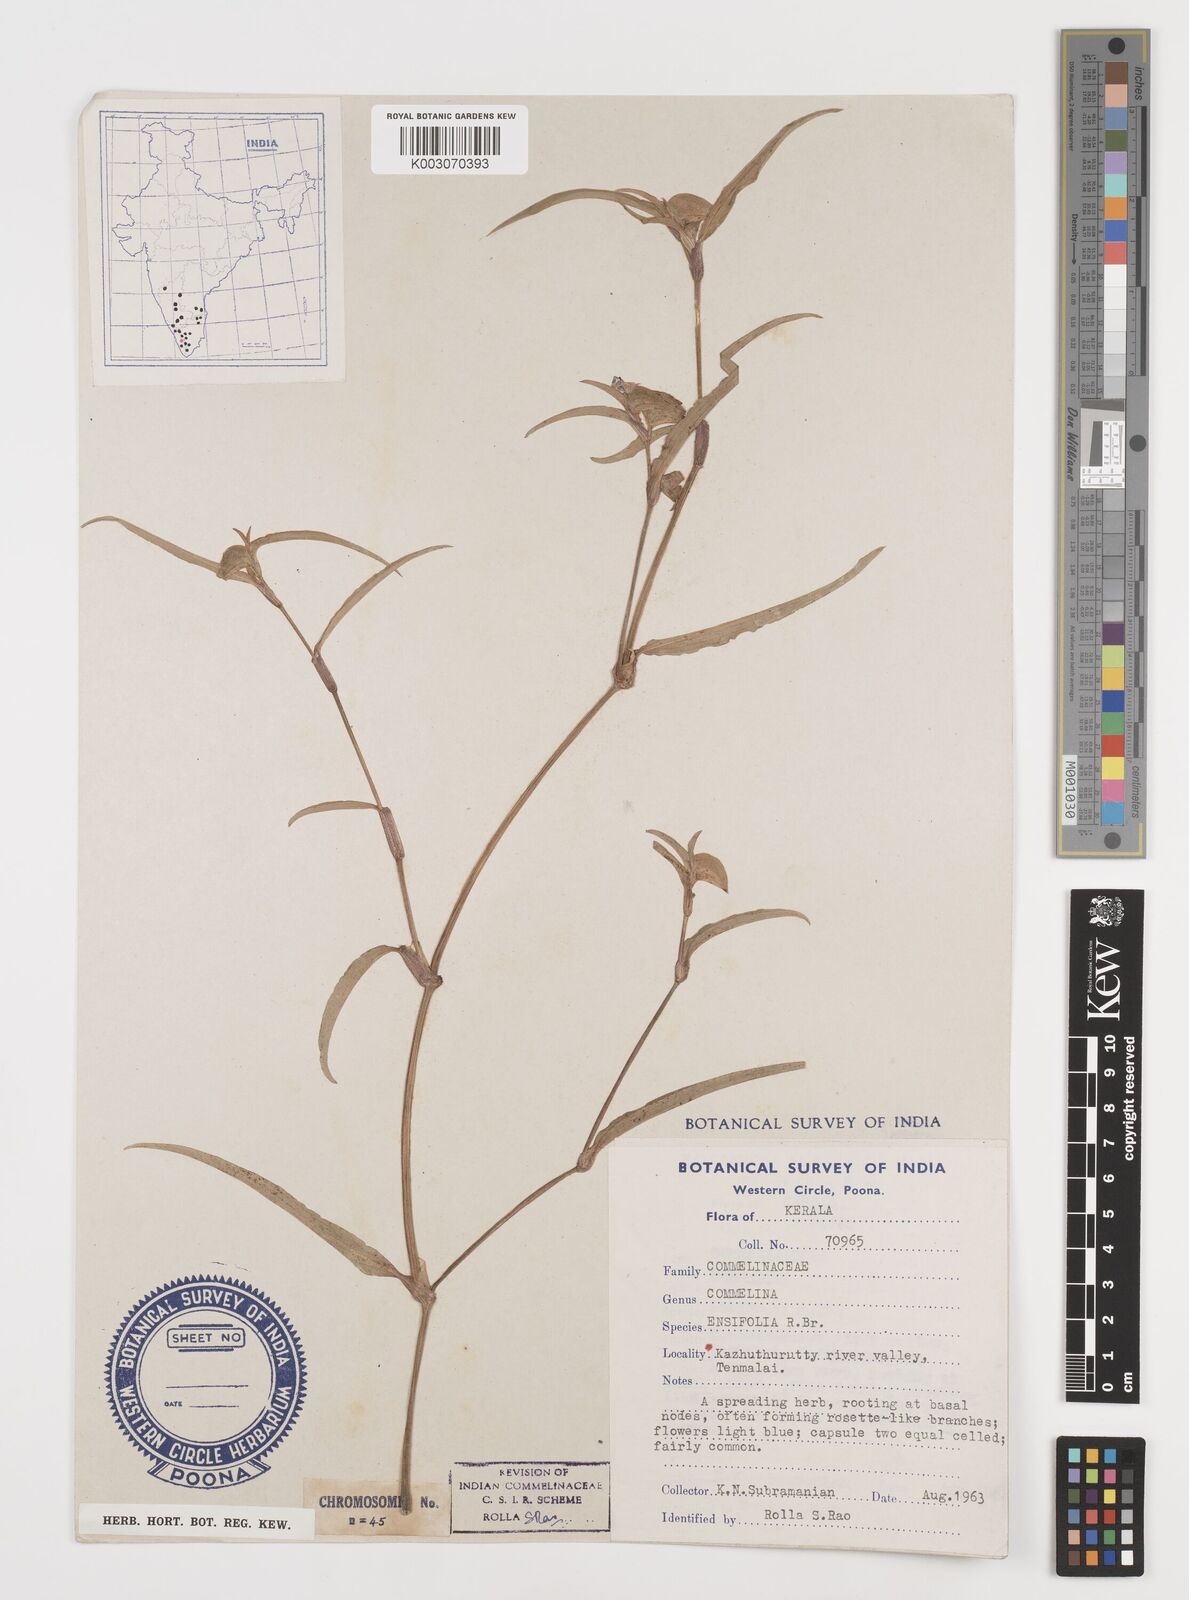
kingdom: Plantae
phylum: Tracheophyta
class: Liliopsida
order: Commelinales
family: Commelinaceae
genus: Commelina
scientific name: Commelina ensifolia
